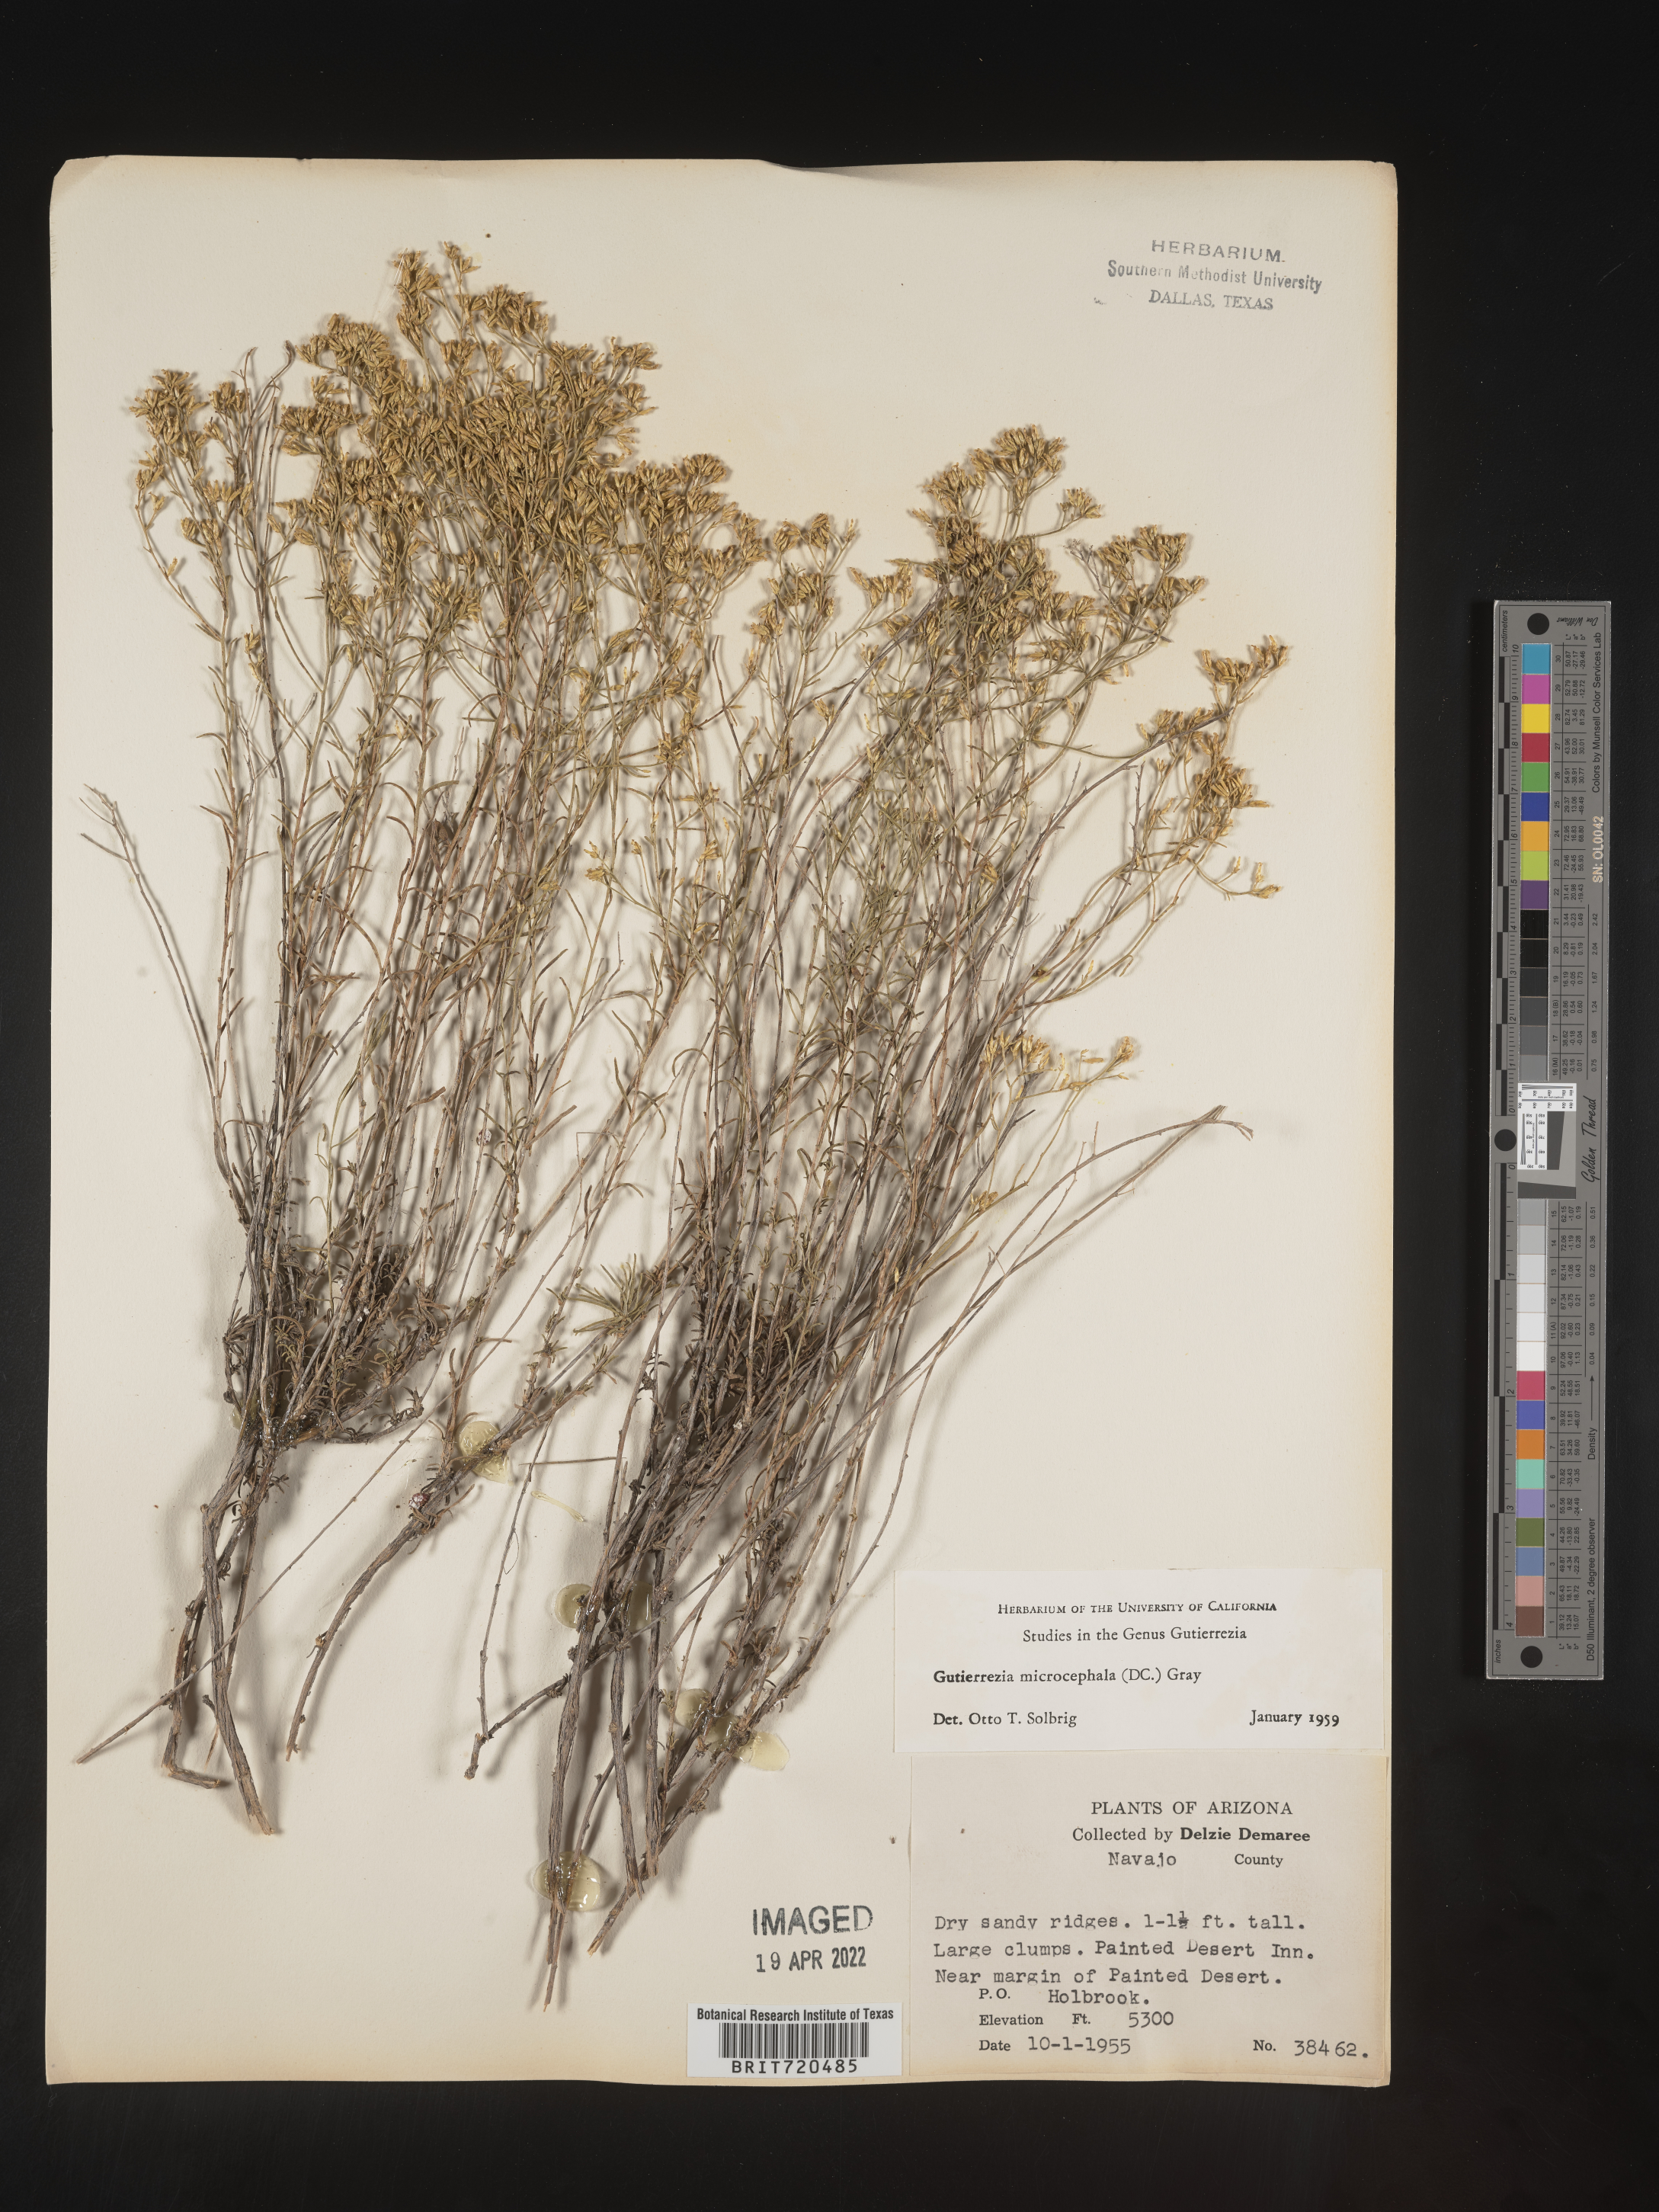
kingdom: Plantae
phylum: Tracheophyta
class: Magnoliopsida
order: Asterales
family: Asteraceae
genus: Gutierrezia
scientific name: Gutierrezia microcephala
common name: Thread snakeweed
